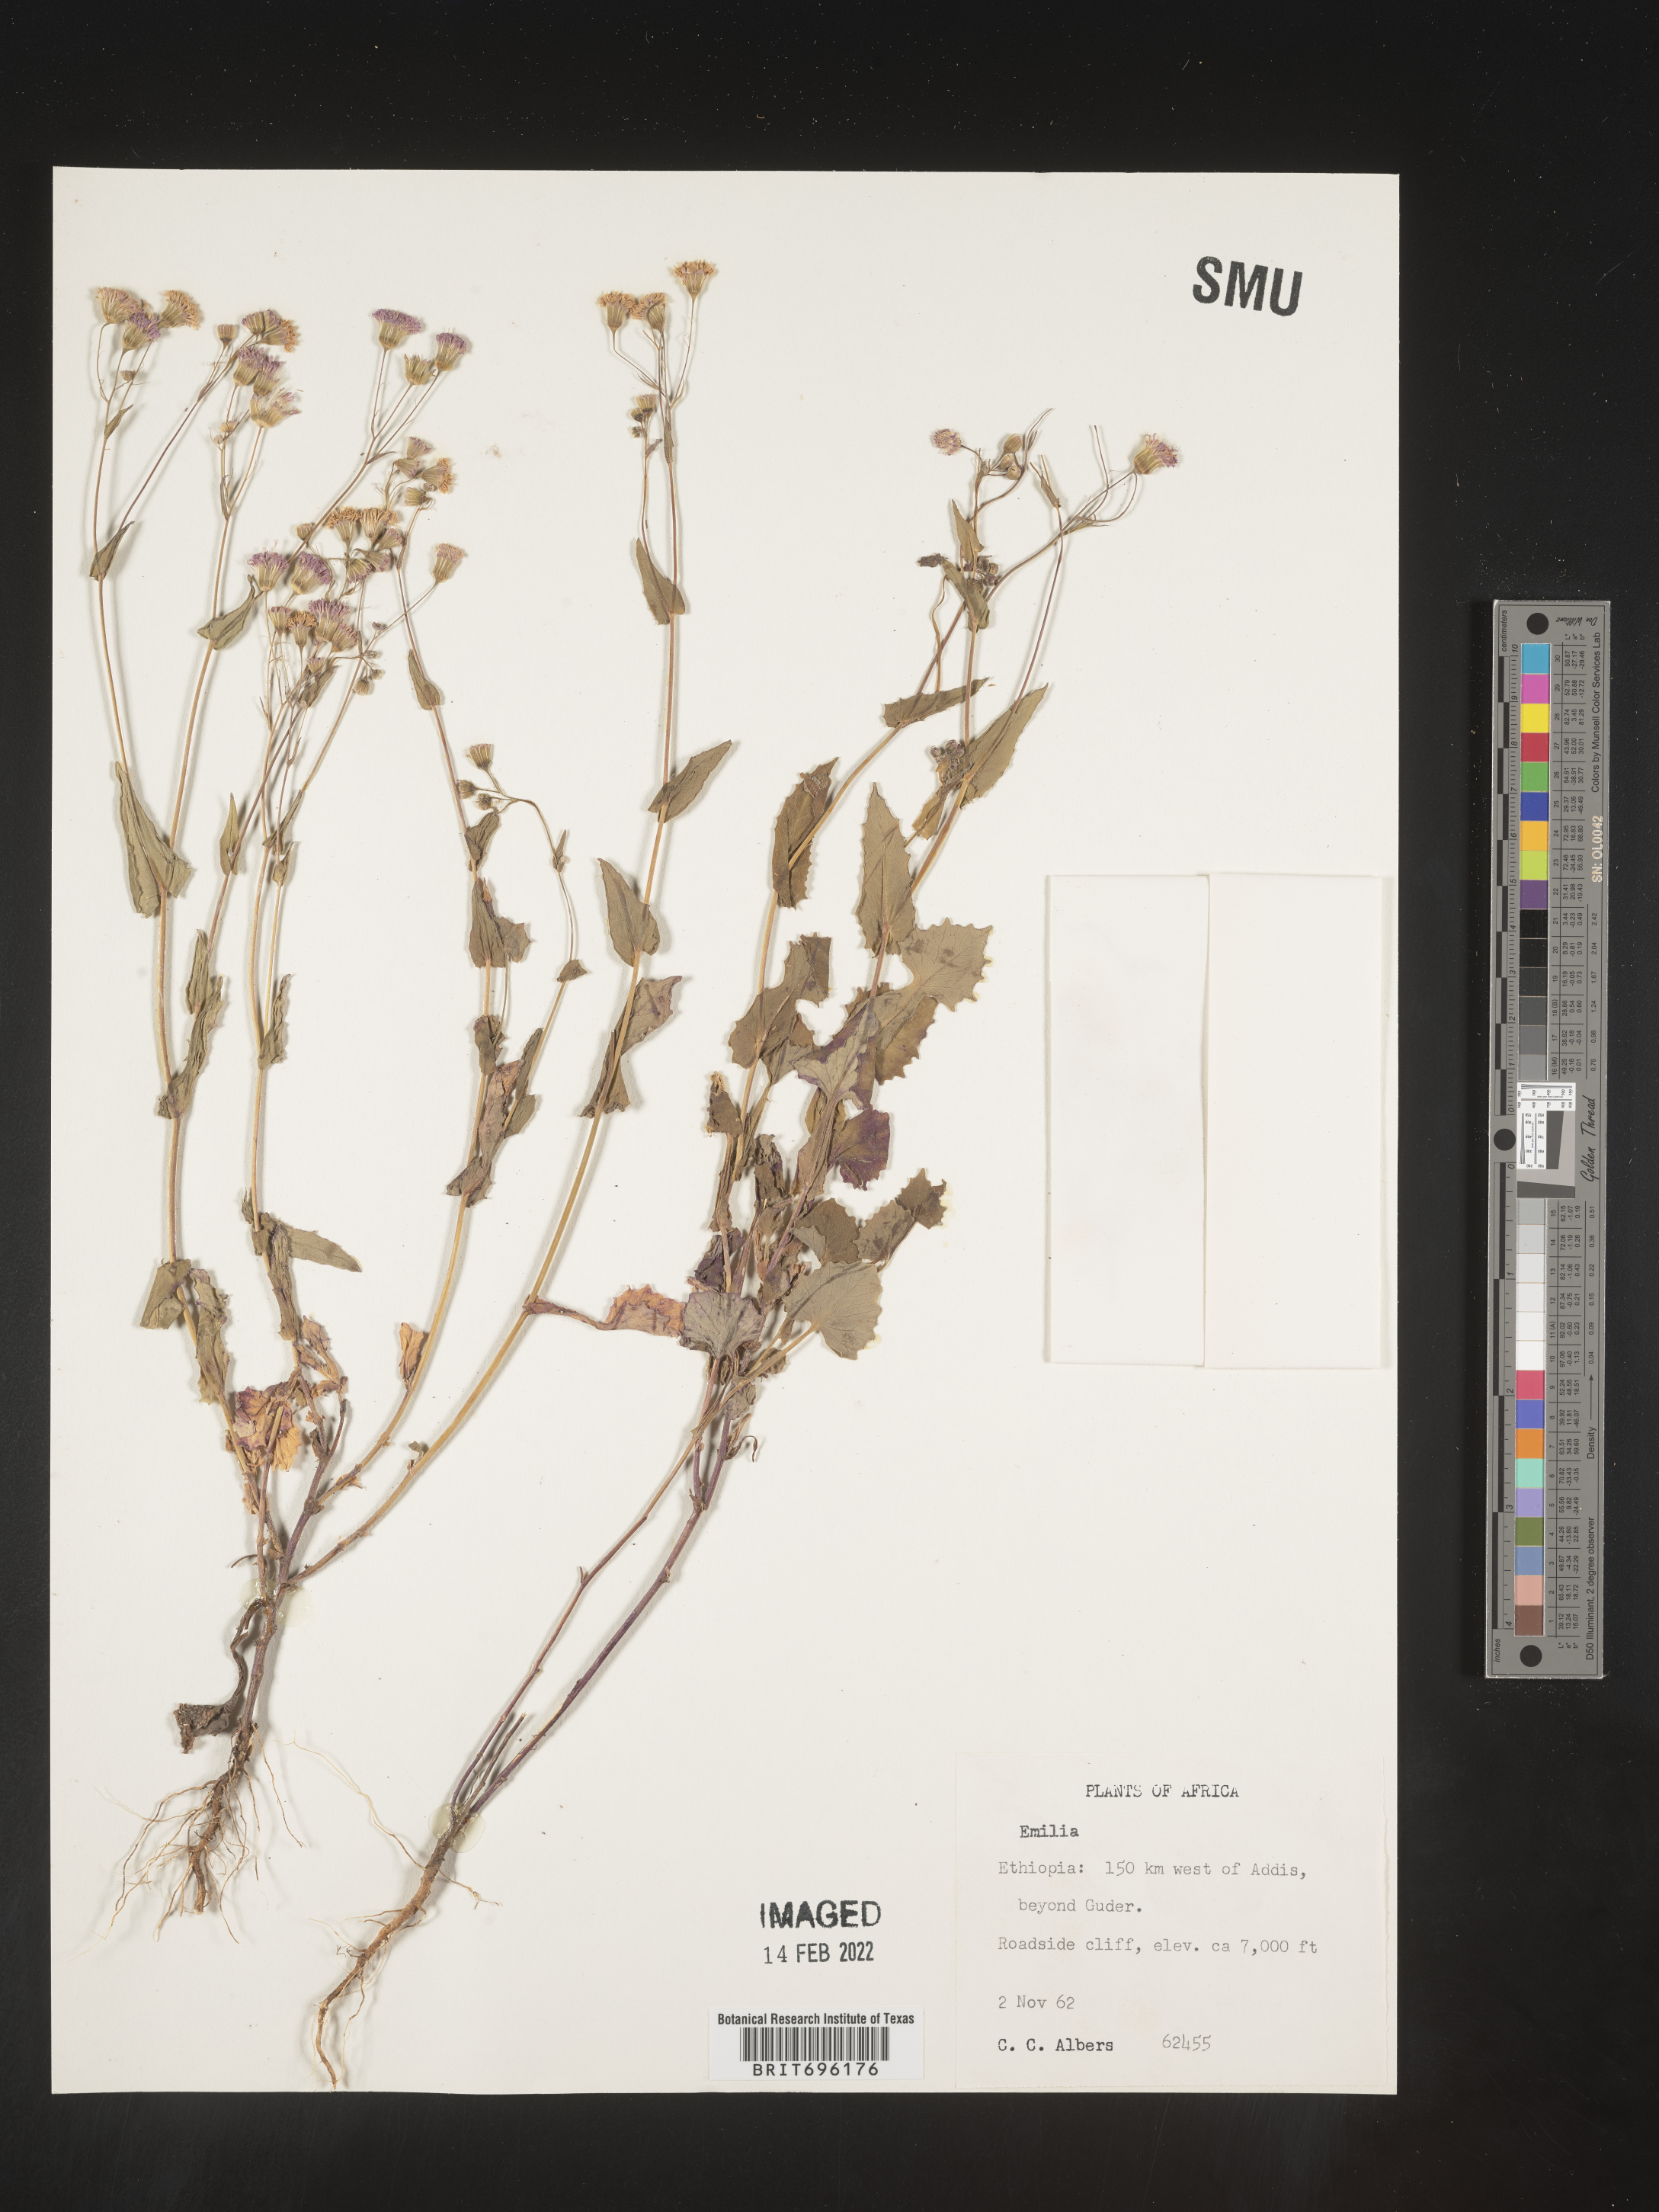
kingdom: Plantae
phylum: Tracheophyta
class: Magnoliopsida
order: Asterales
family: Asteraceae
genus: Emilia
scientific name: Emilia
